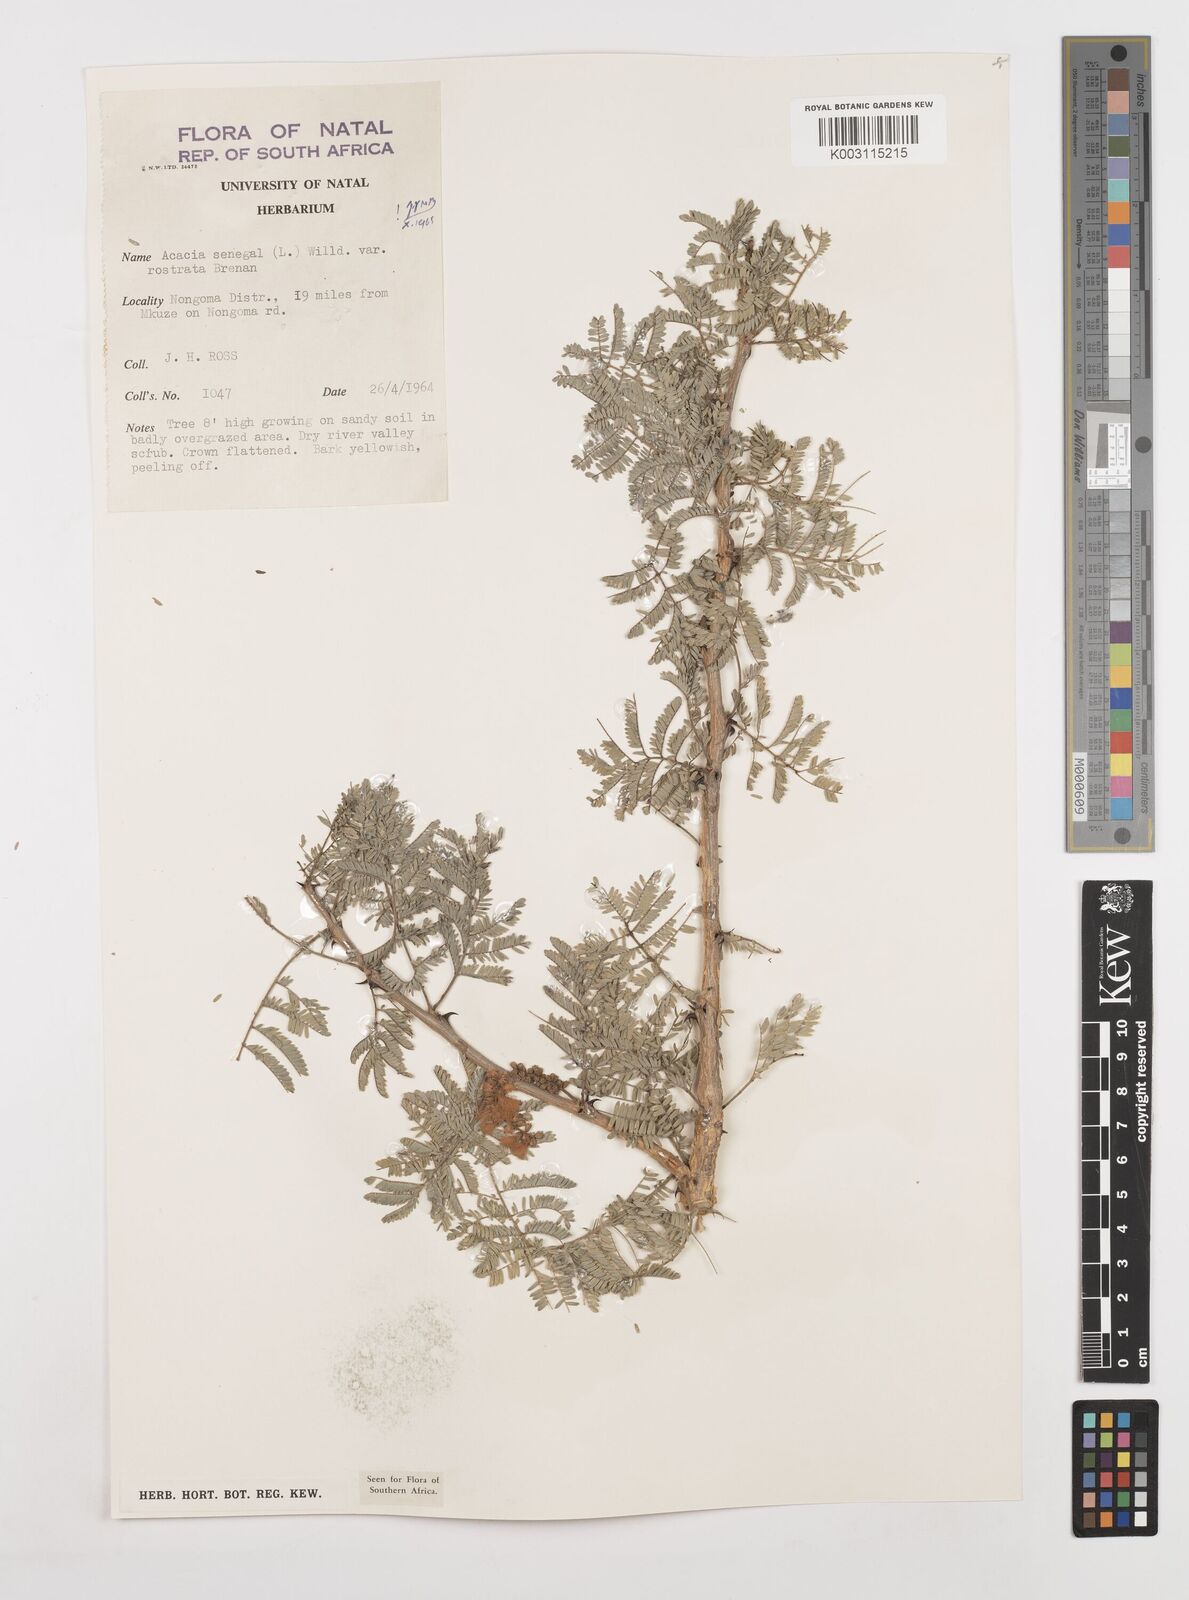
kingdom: Plantae
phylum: Tracheophyta
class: Magnoliopsida
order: Fabales
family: Fabaceae
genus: Senegalia
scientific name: Senegalia senegal
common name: Senegal-gum
